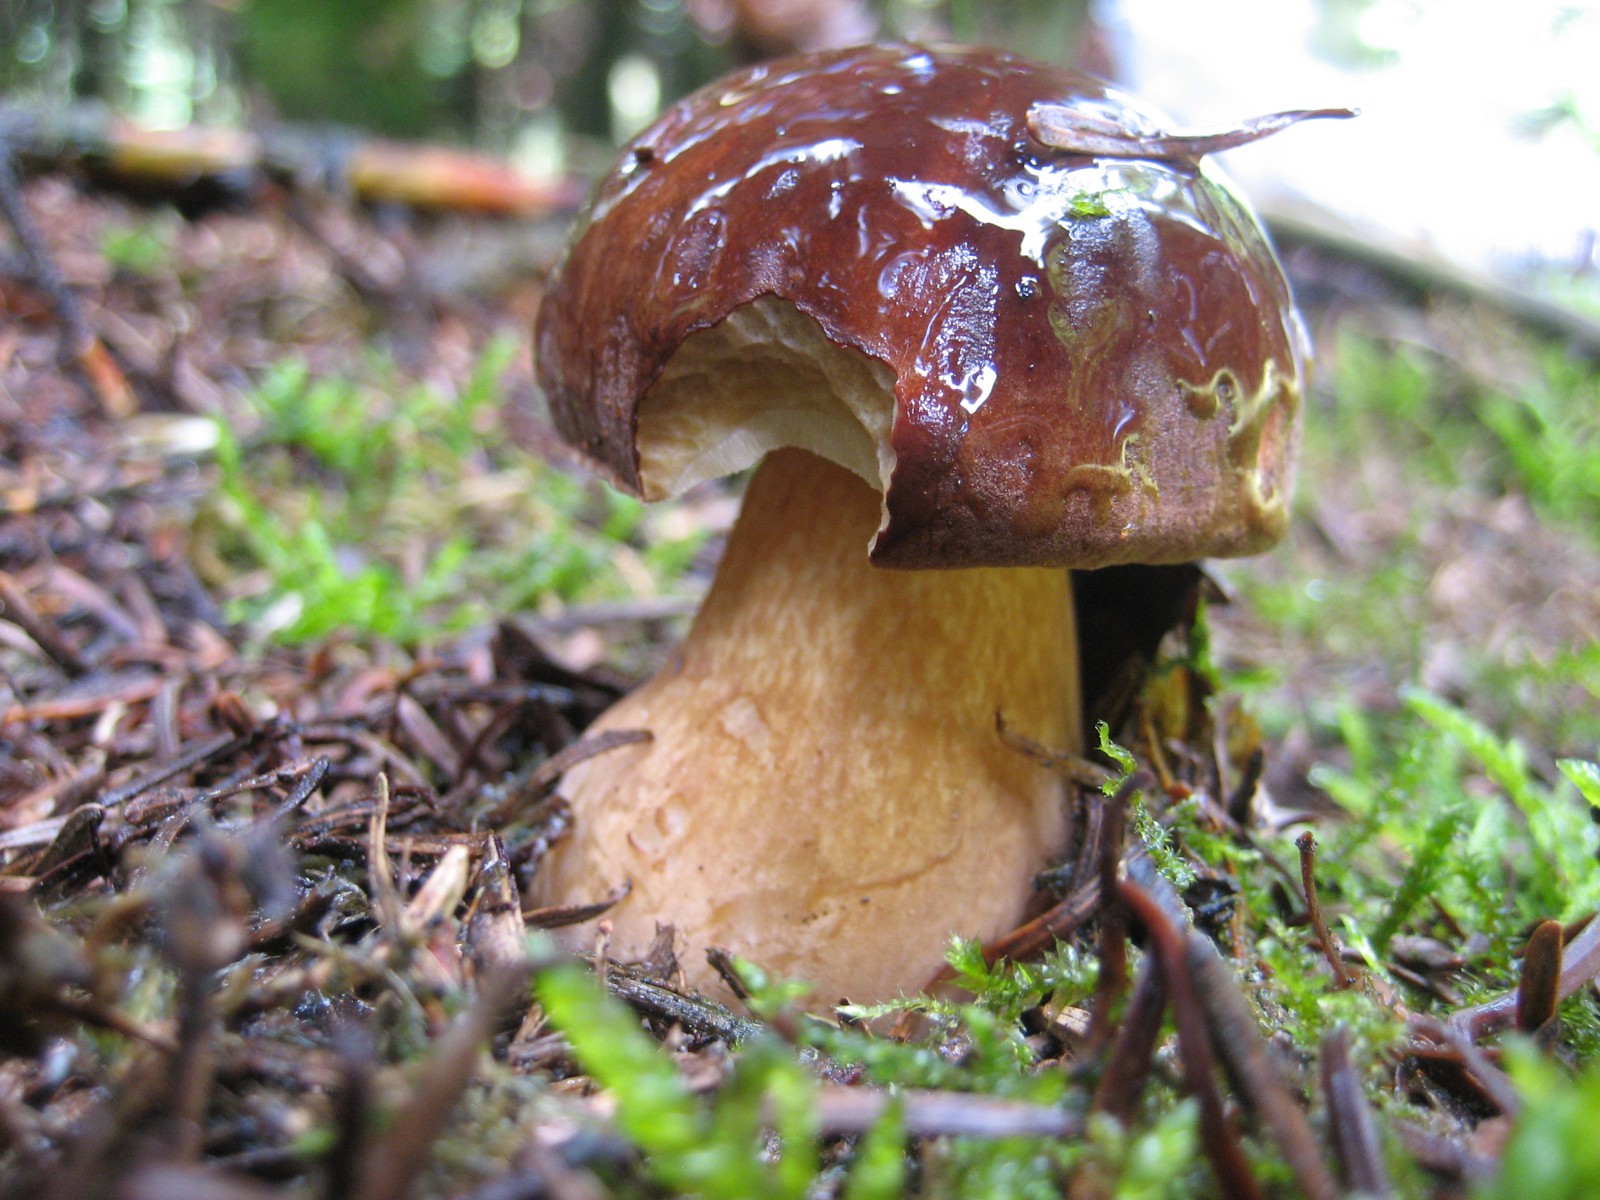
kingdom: Fungi
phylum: Basidiomycota
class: Agaricomycetes
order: Boletales
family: Boletaceae
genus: Imleria
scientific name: Imleria badia
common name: brunstokket rørhat
